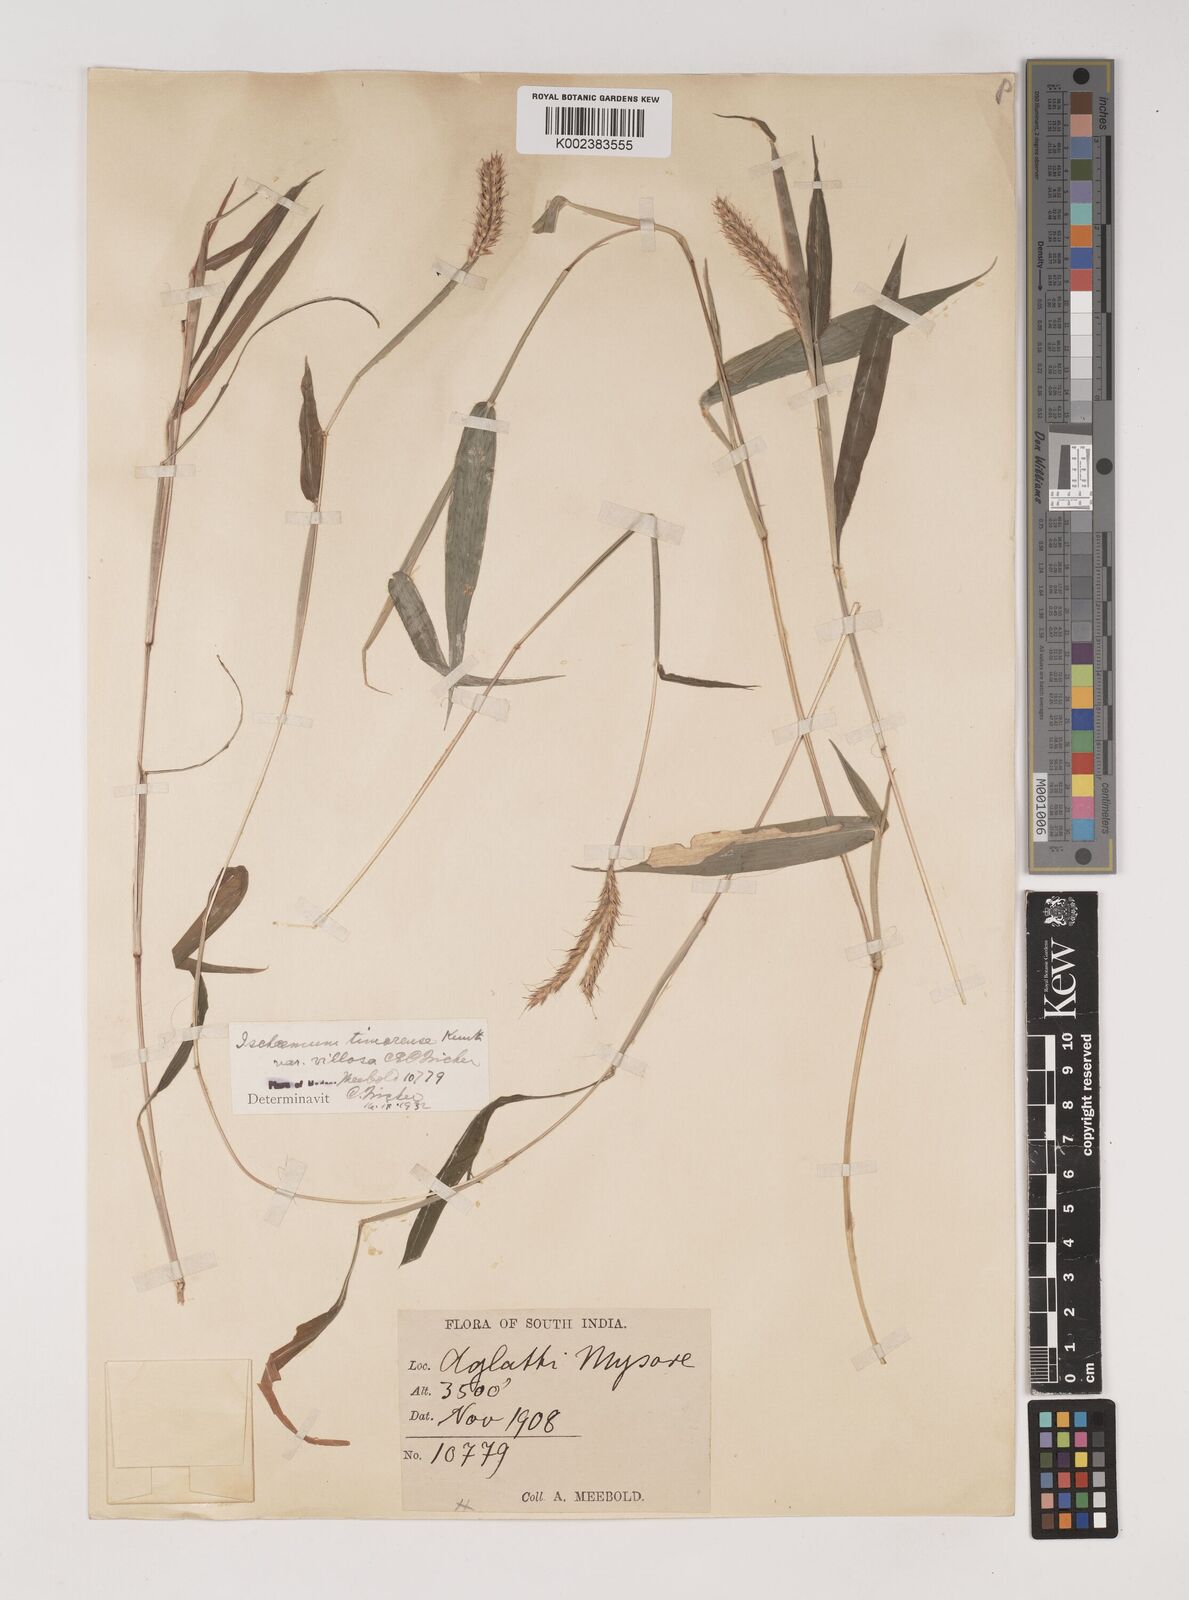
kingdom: Plantae
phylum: Tracheophyta
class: Liliopsida
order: Poales
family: Poaceae
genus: Ischaemum
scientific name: Ischaemum timorense
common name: Stalkleaf murainagrass
